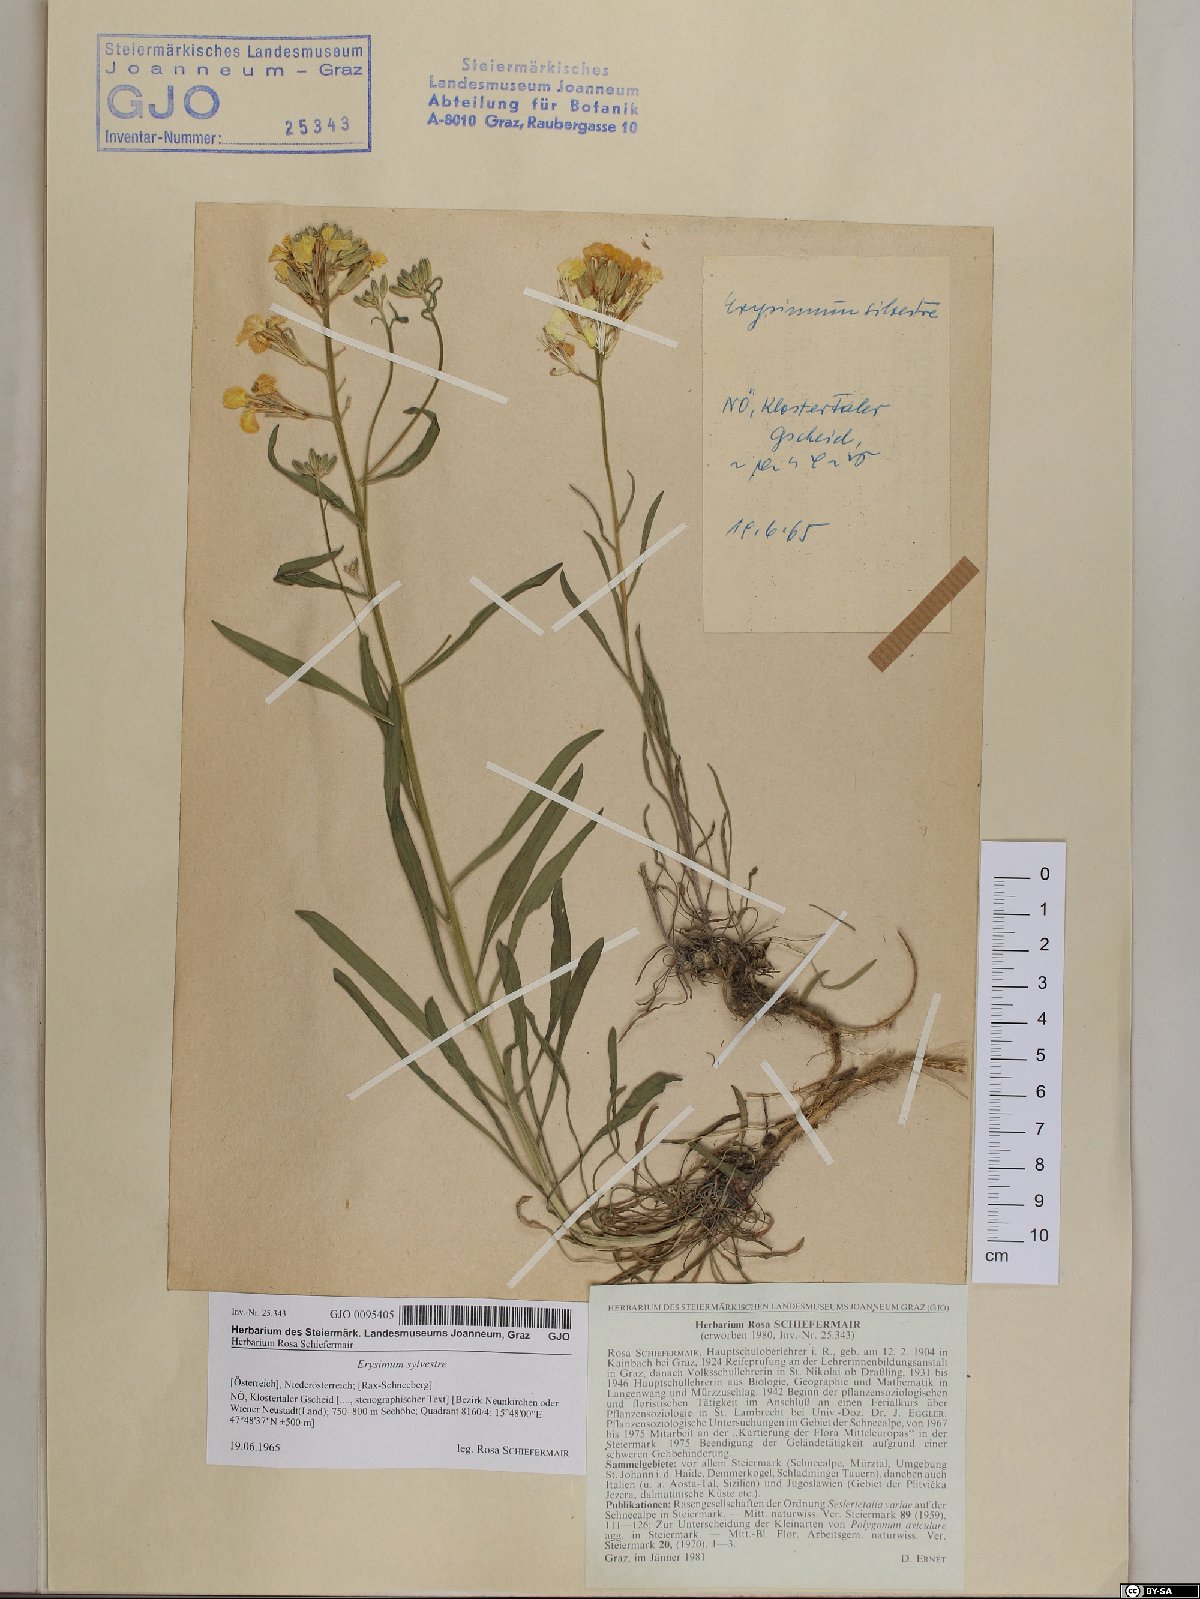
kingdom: Plantae
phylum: Tracheophyta
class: Magnoliopsida
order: Brassicales
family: Brassicaceae
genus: Erysimum
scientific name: Erysimum sylvestre
